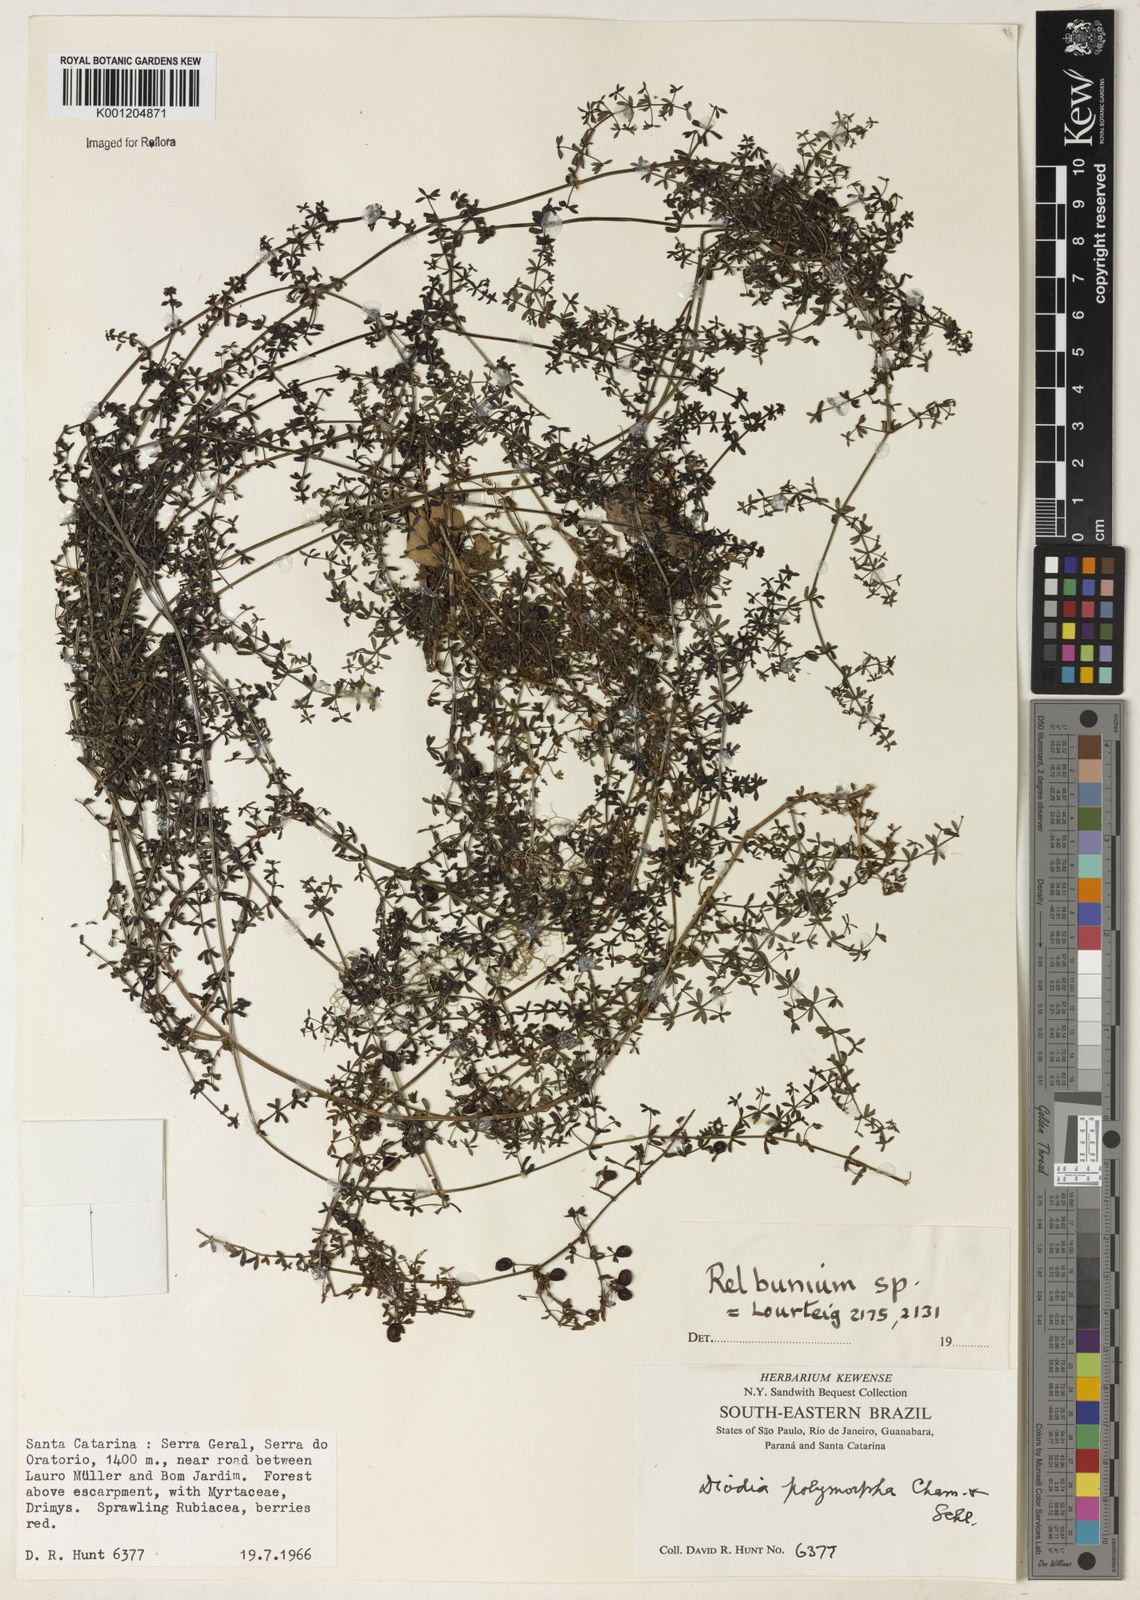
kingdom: Plantae
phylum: Tracheophyta
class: Magnoliopsida
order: Gentianales
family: Rubiaceae
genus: Galium
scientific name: Galium
